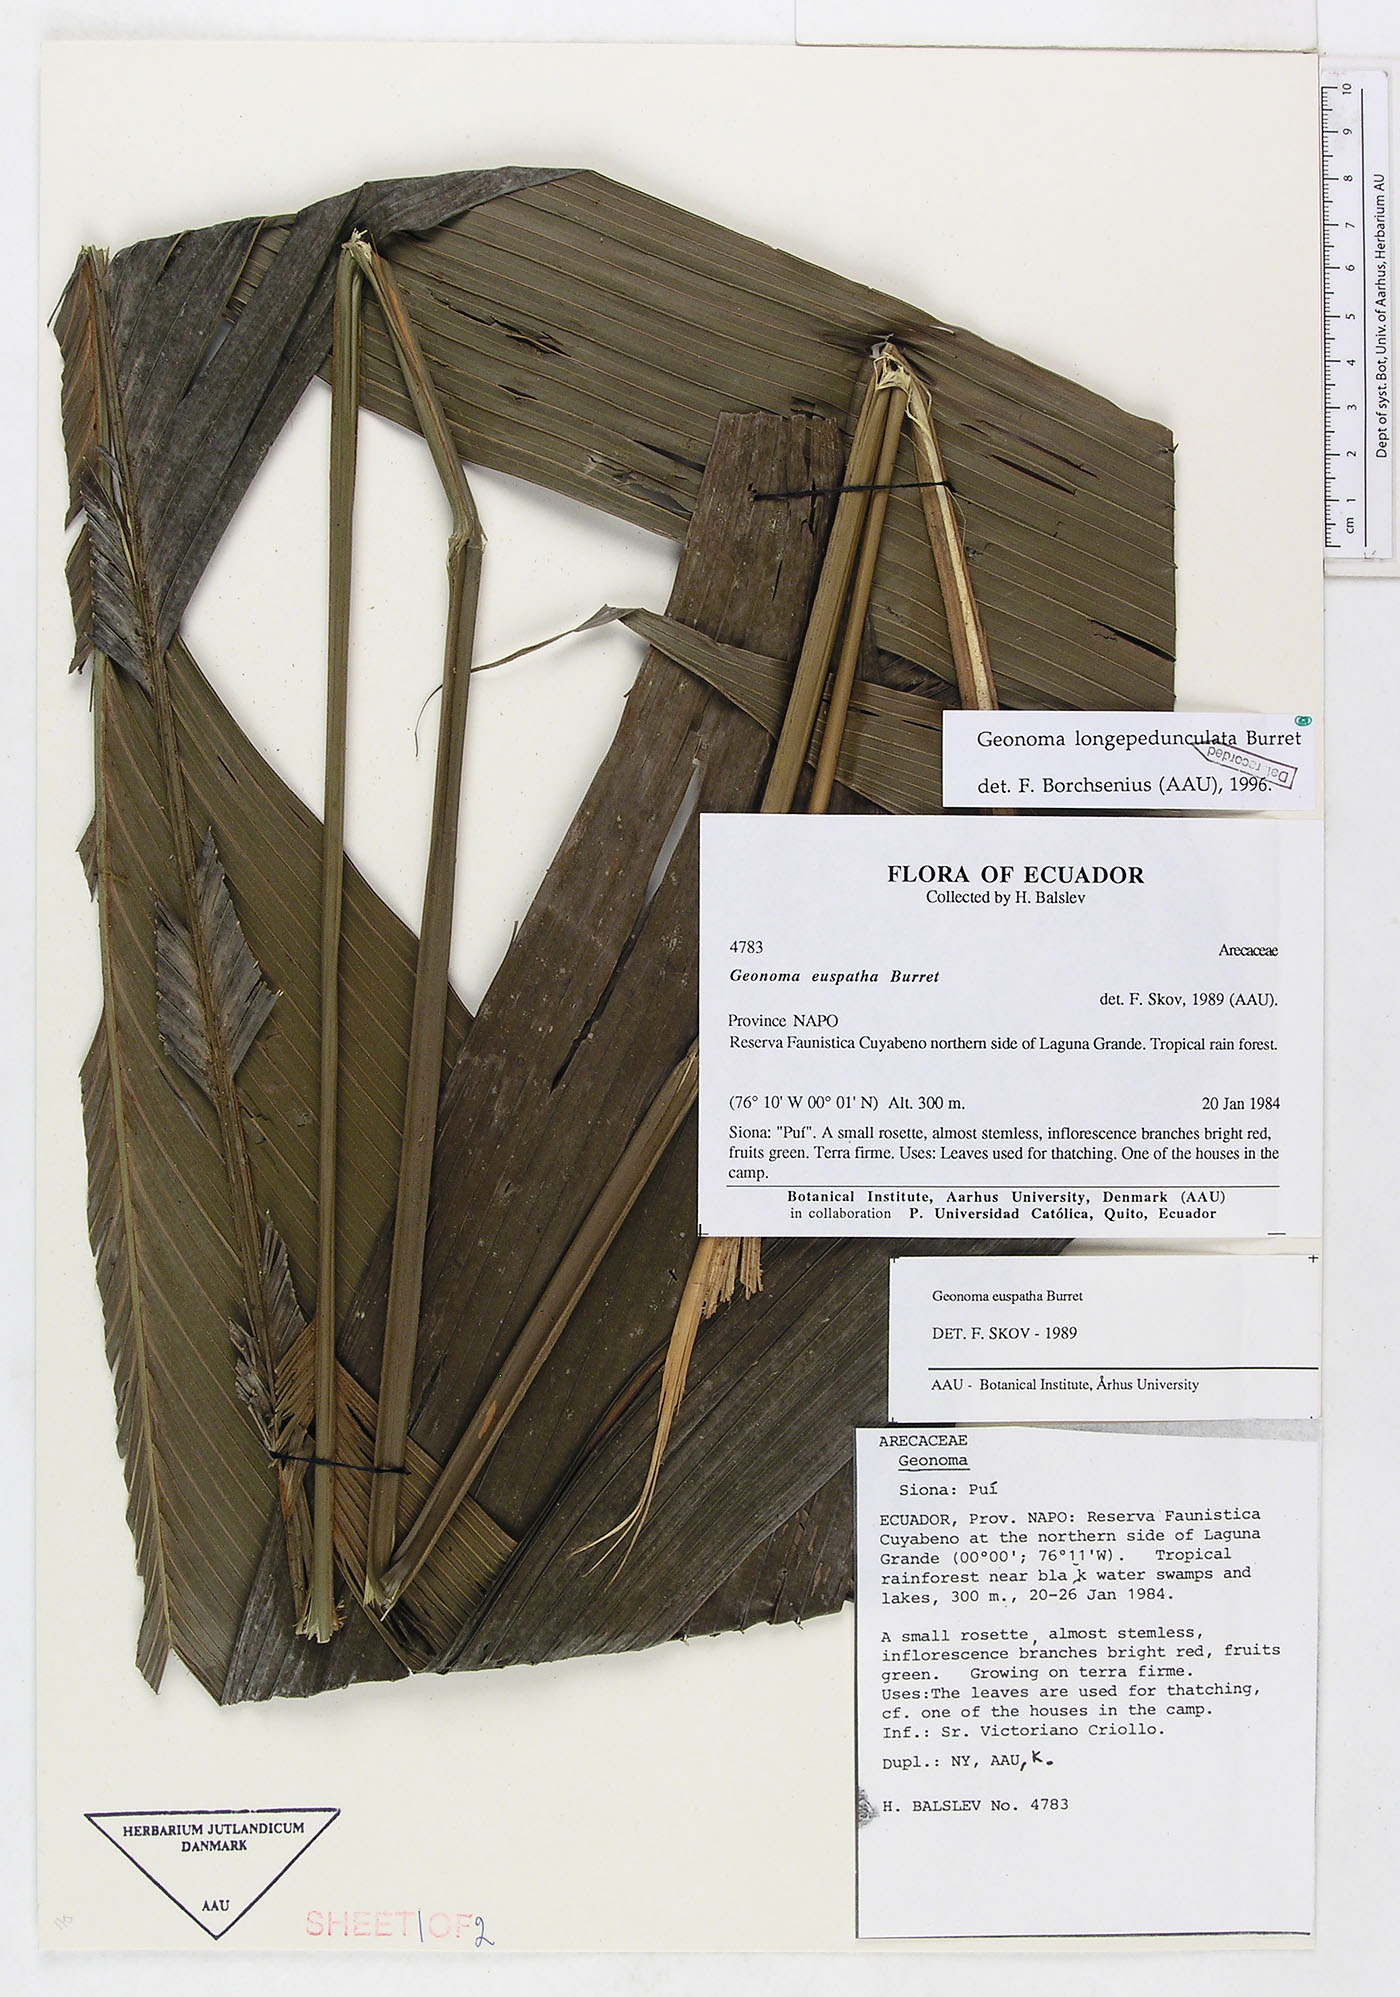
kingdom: Plantae
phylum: Tracheophyta
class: Liliopsida
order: Arecales
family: Arecaceae
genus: Geonoma
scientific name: Geonoma longepedunculata
